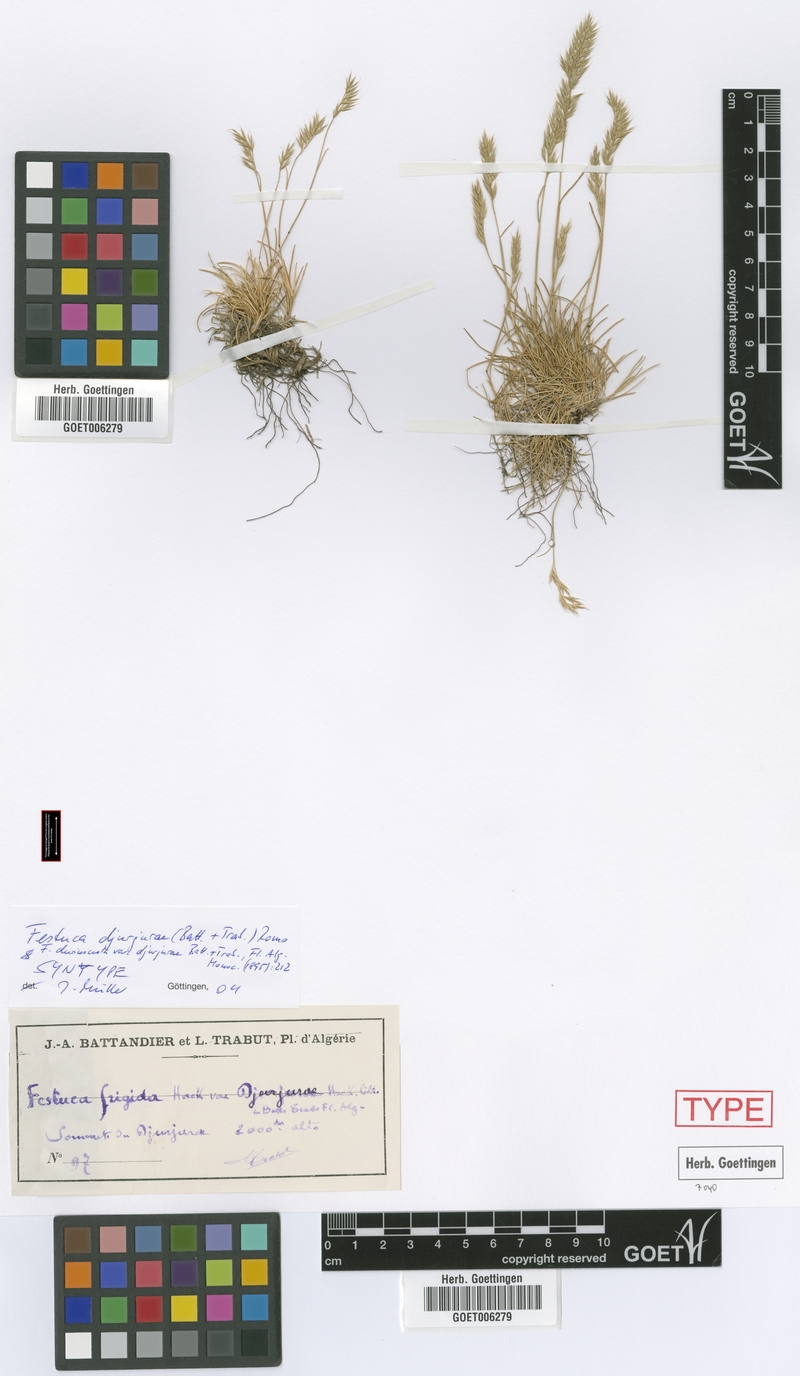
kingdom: Plantae
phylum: Tracheophyta
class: Liliopsida
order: Poales
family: Poaceae
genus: Festuca
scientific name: Festuca djurdjurae
